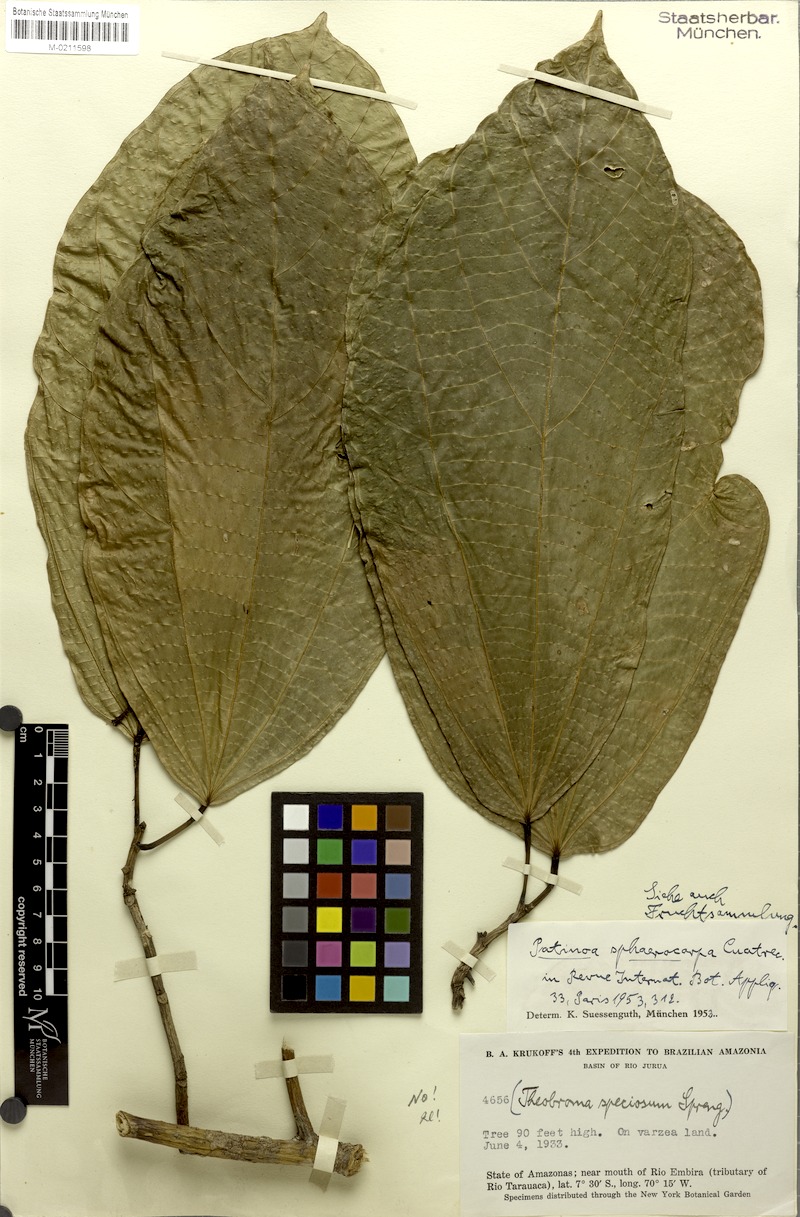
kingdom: Plantae
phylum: Tracheophyta
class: Magnoliopsida
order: Malvales
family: Malvaceae
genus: Patinoa
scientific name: Patinoa sphaerocarpa
